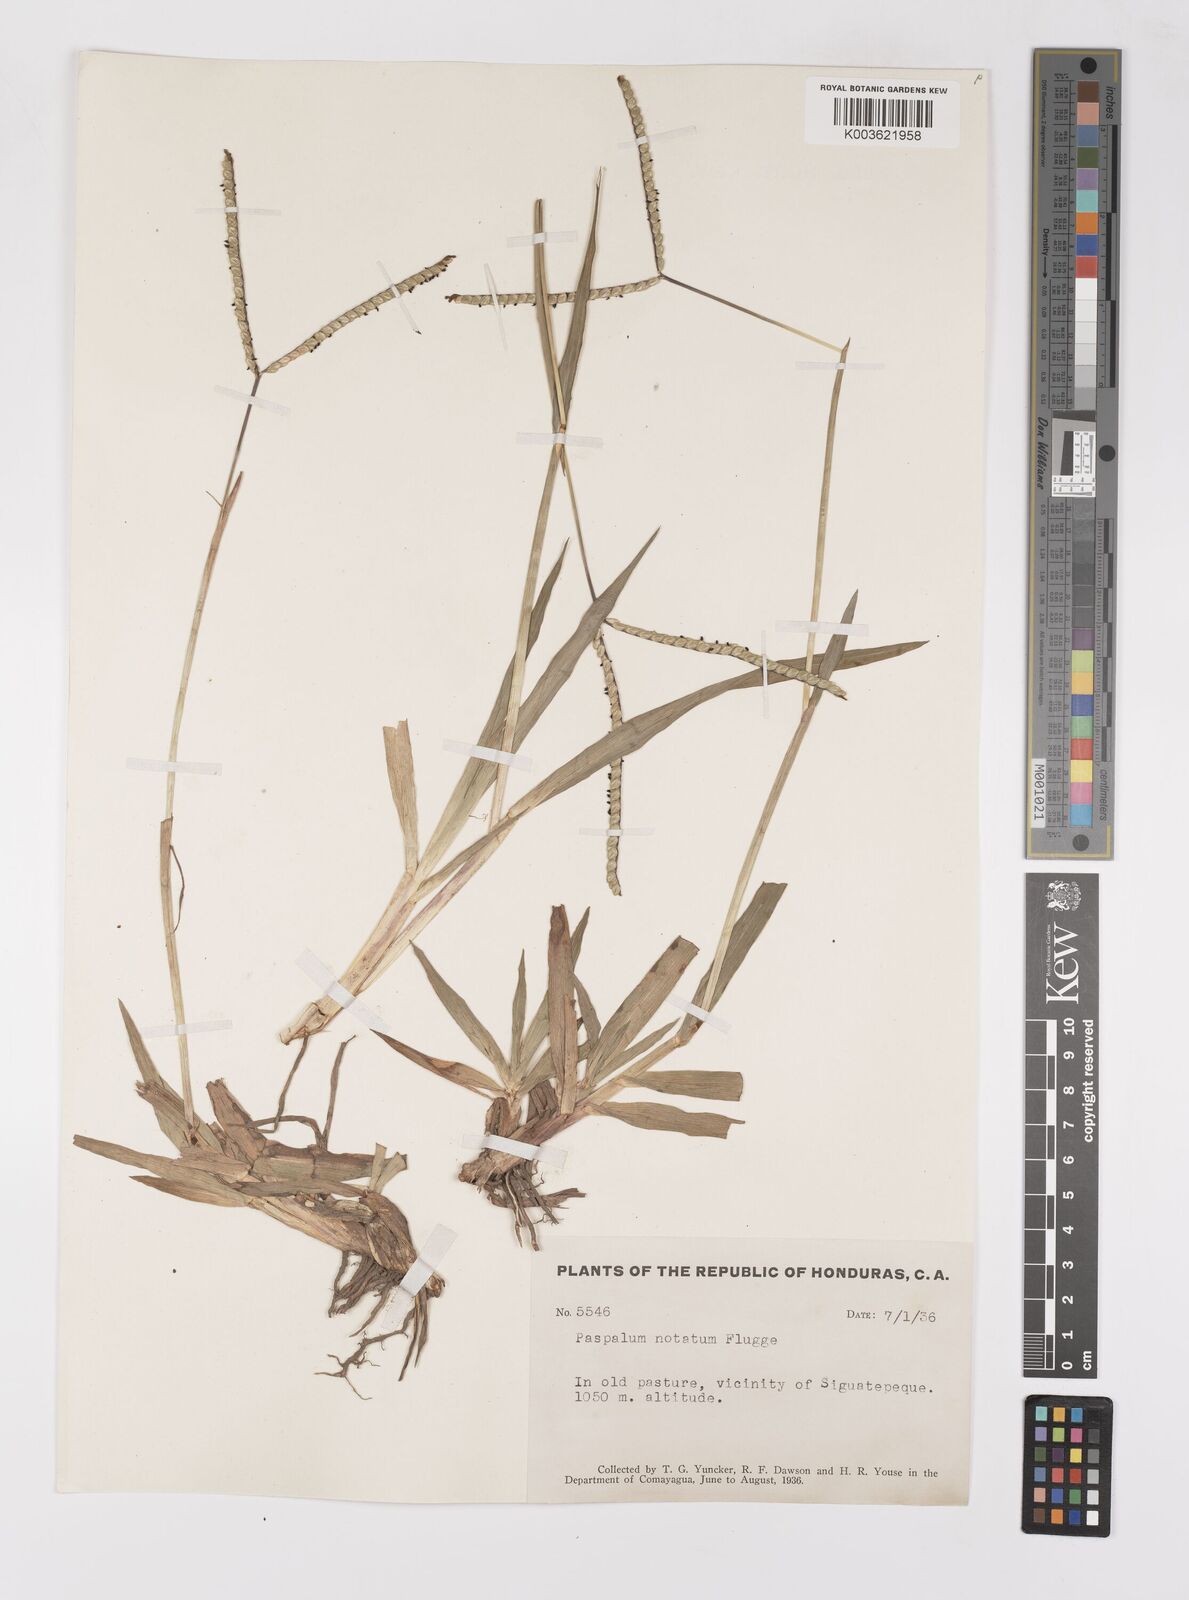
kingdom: Plantae
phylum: Tracheophyta
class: Liliopsida
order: Poales
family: Poaceae
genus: Paspalum
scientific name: Paspalum notatum
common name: Bahiagrass
